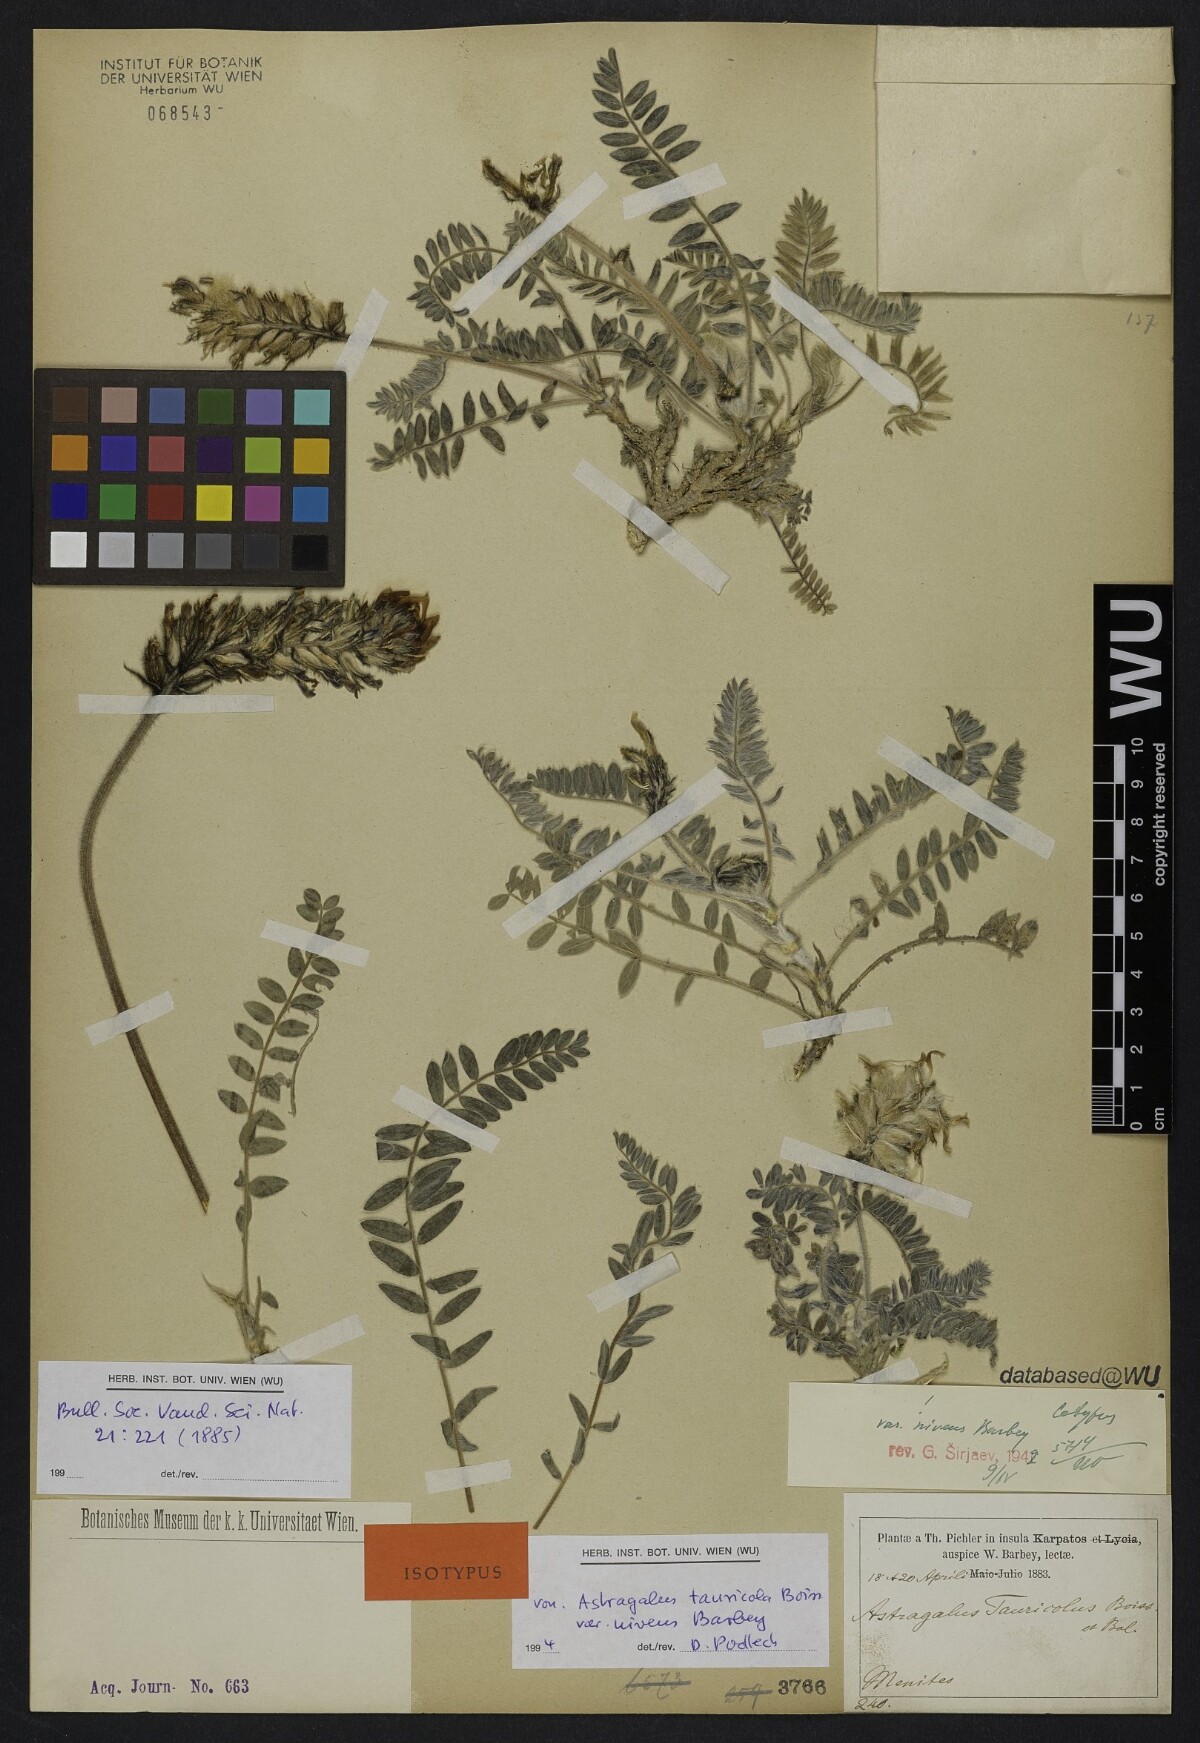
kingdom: Plantae
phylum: Tracheophyta
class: Magnoliopsida
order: Fabales
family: Fabaceae
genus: Astragalus
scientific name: Astragalus austroaegaeus
